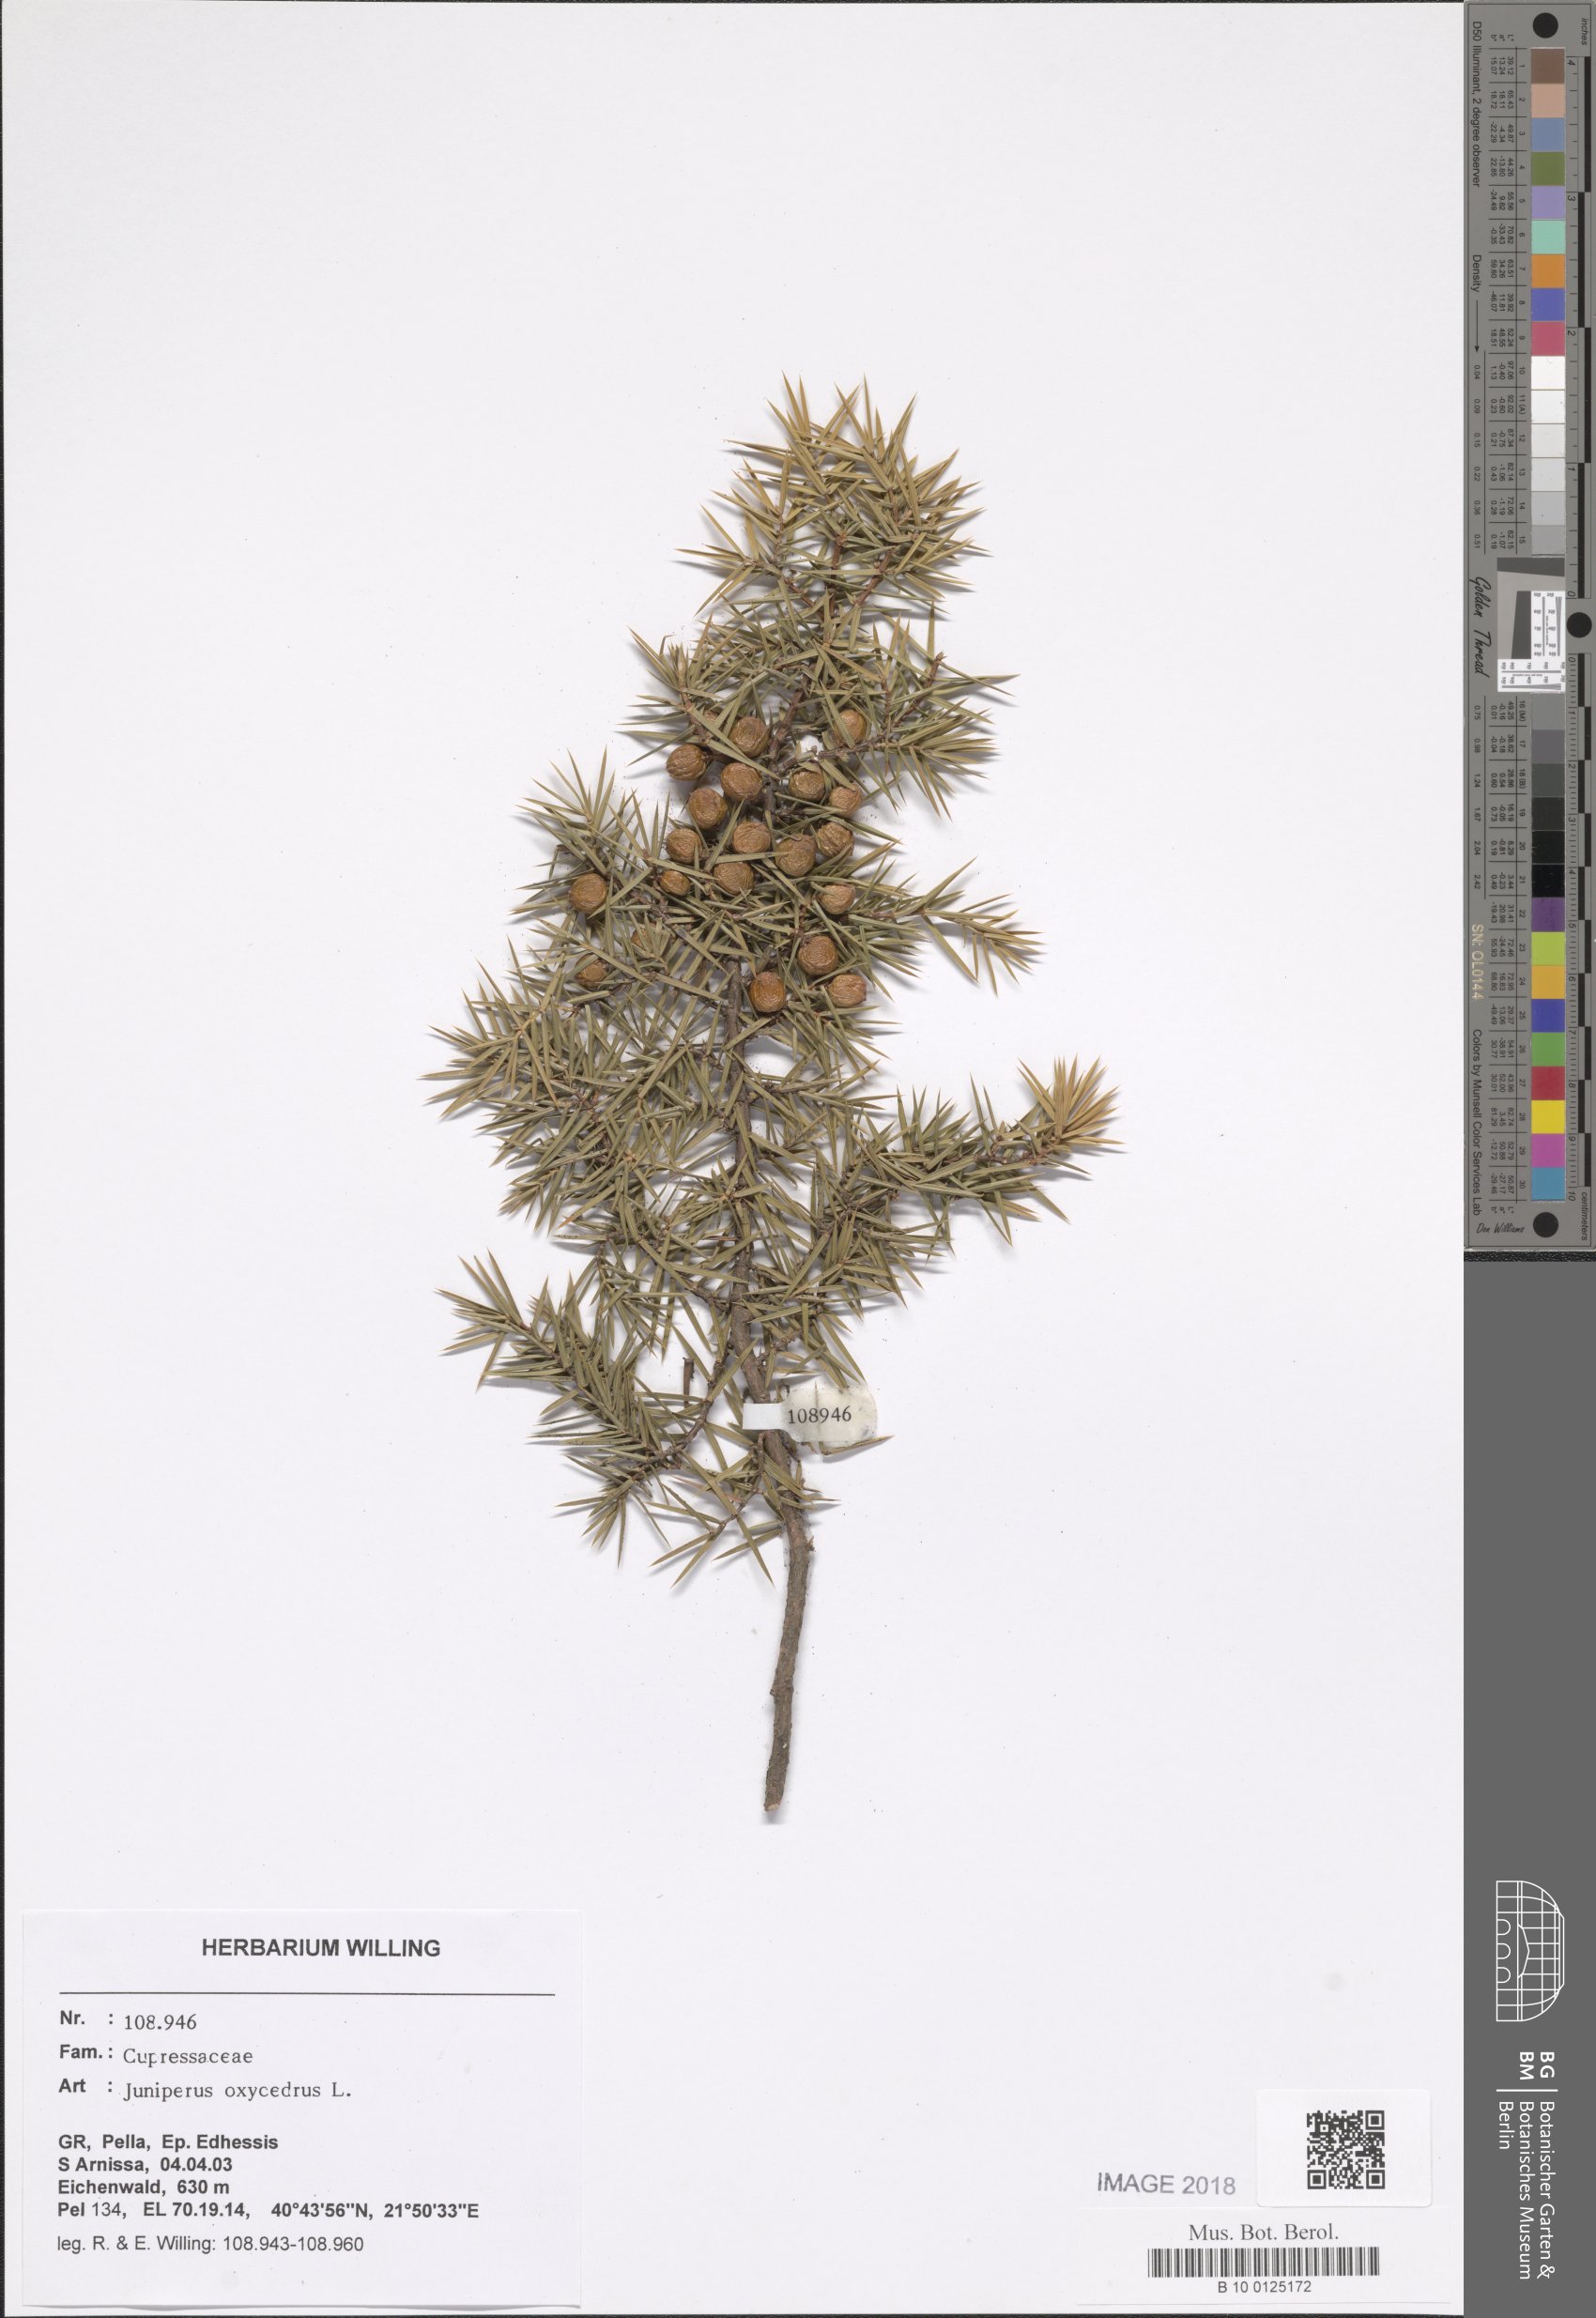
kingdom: Plantae
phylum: Tracheophyta
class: Pinopsida
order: Pinales
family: Cupressaceae
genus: Juniperus
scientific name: Juniperus oxycedrus
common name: Prickly juniper
